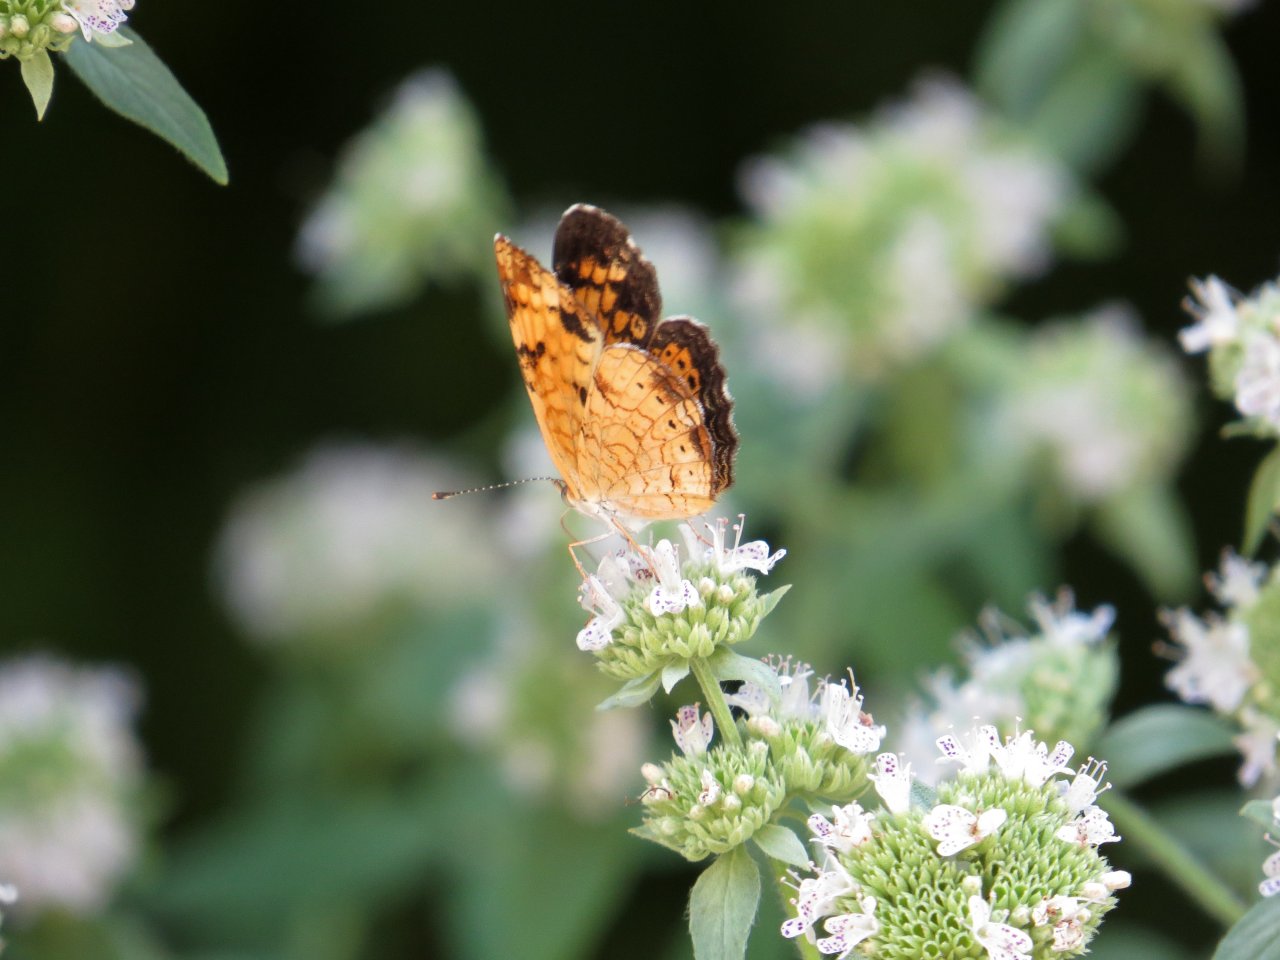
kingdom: Animalia
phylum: Arthropoda
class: Insecta
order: Lepidoptera
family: Nymphalidae
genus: Phyciodes
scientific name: Phyciodes tharos
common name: Pearl Crescent
